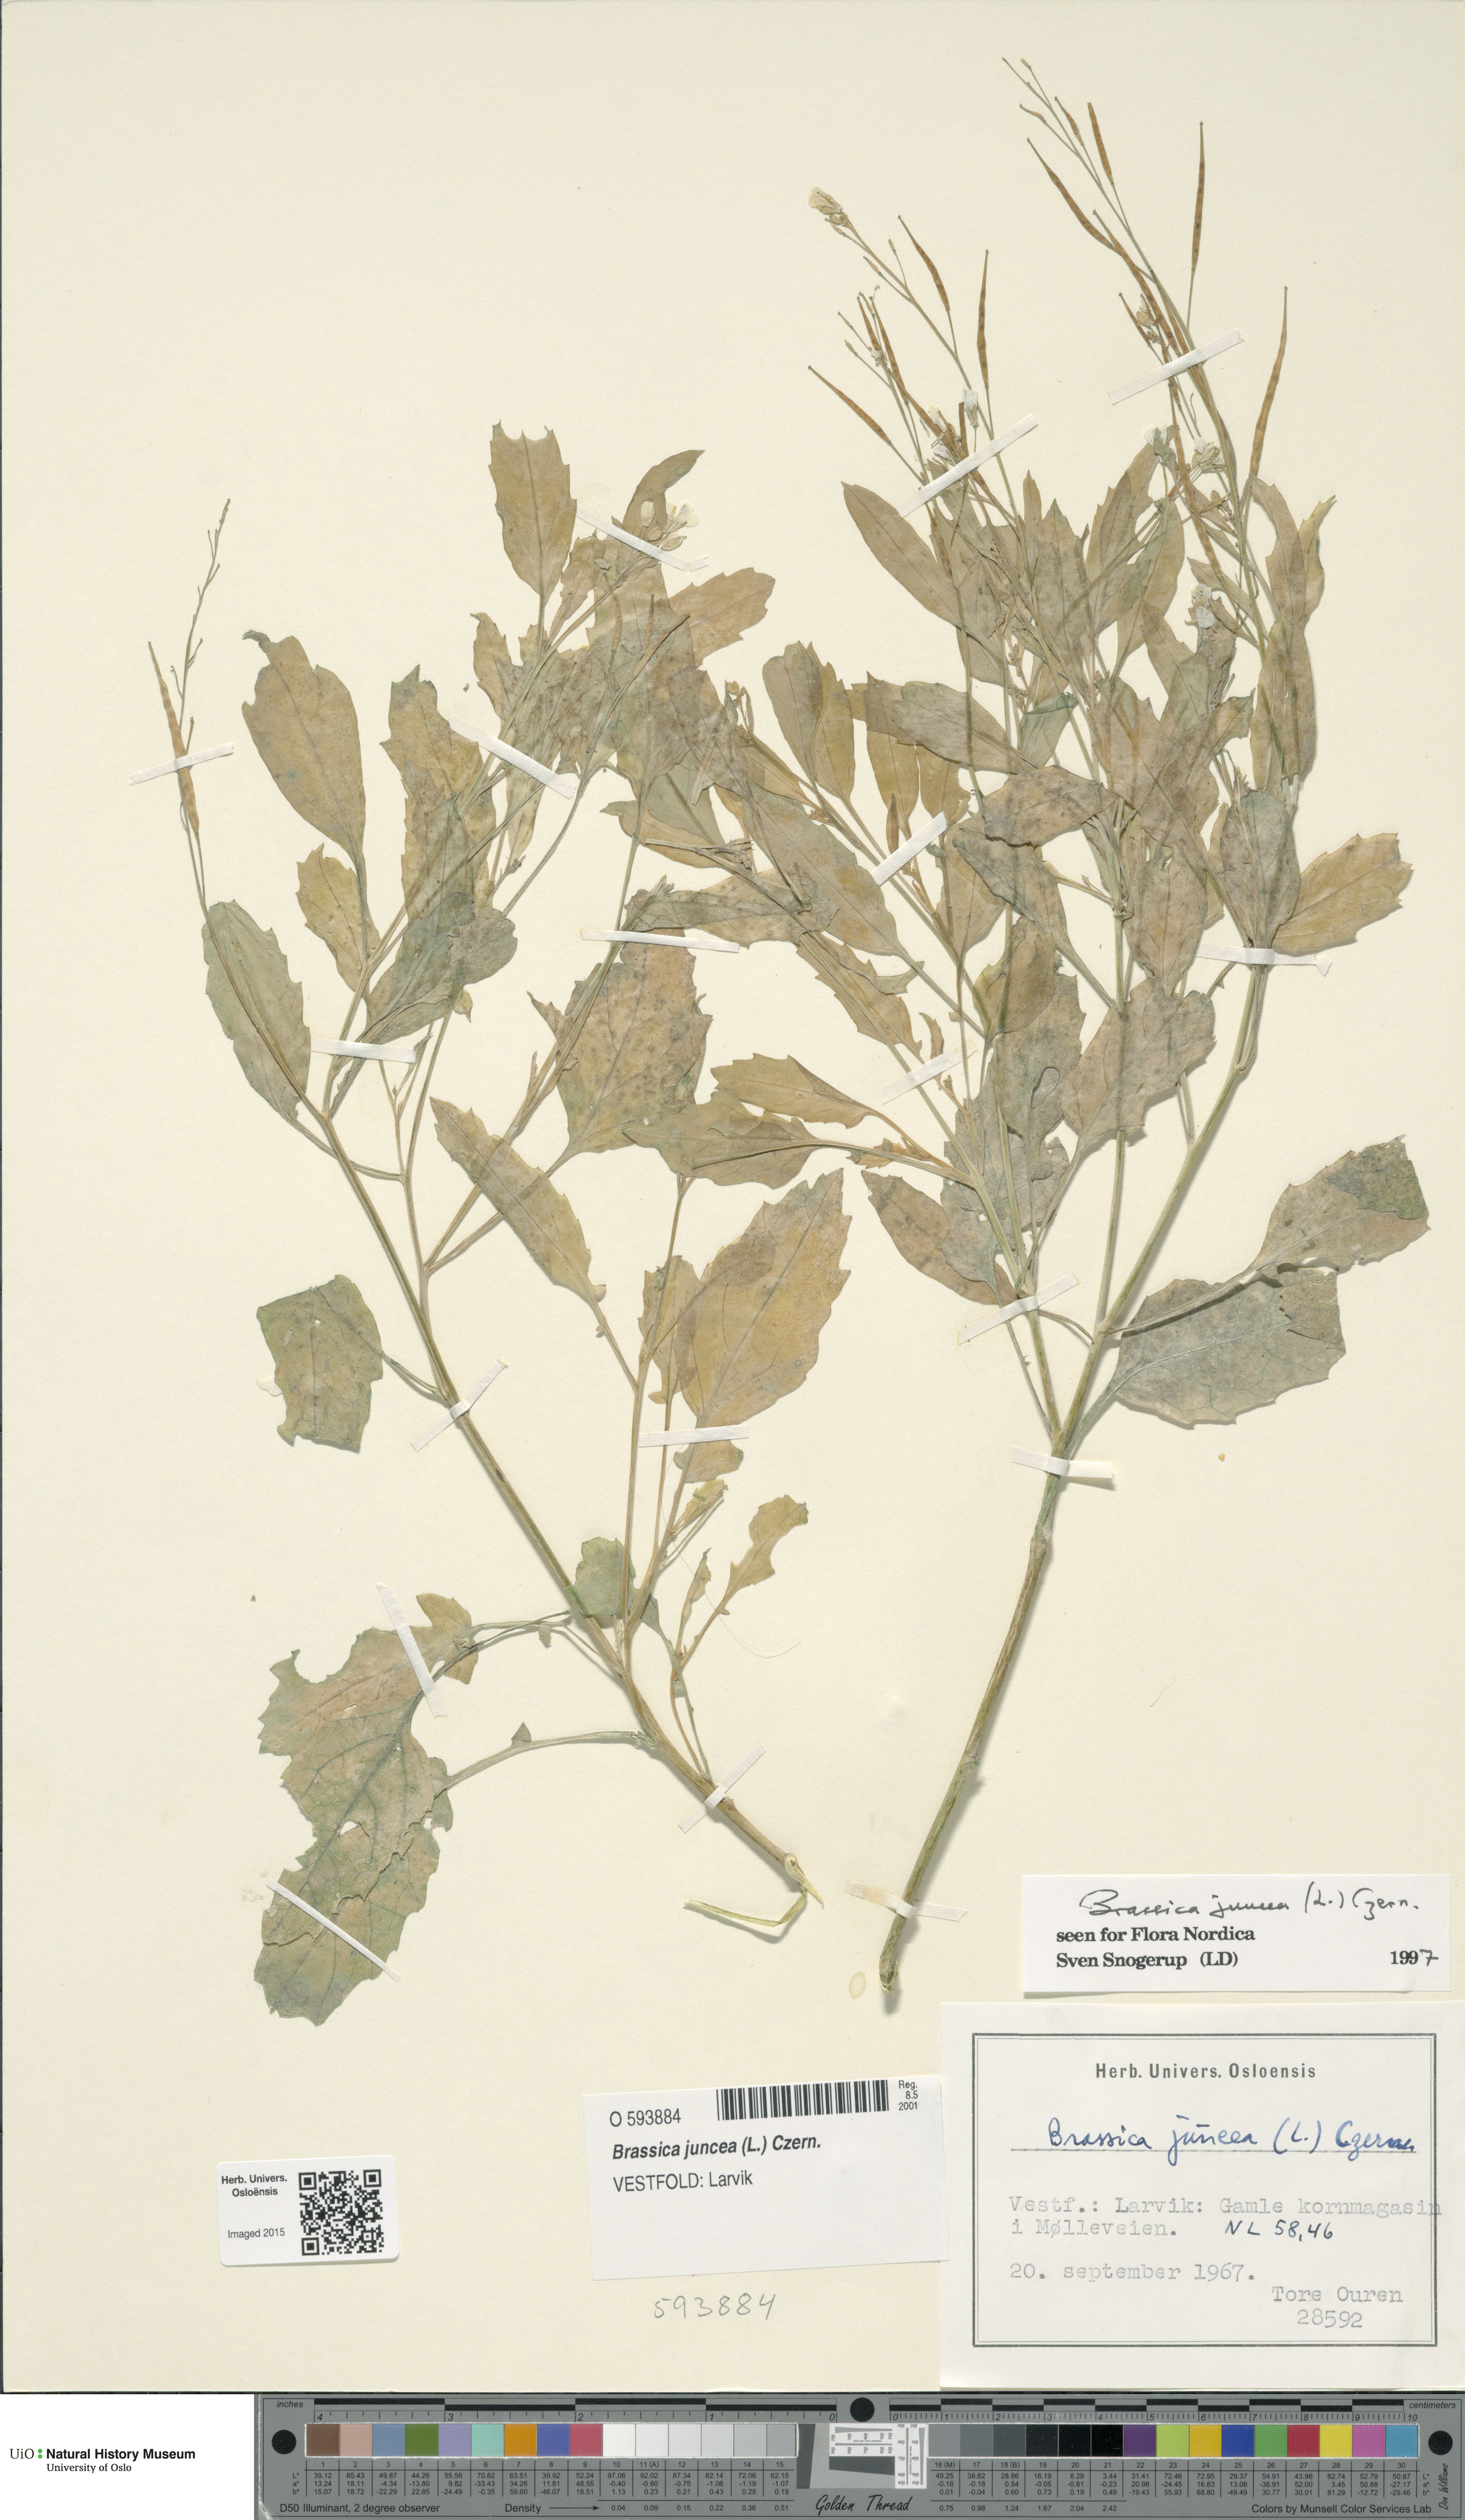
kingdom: Plantae
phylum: Tracheophyta
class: Magnoliopsida
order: Brassicales
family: Brassicaceae
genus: Brassica
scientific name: Brassica juncea
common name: Brown mustard
